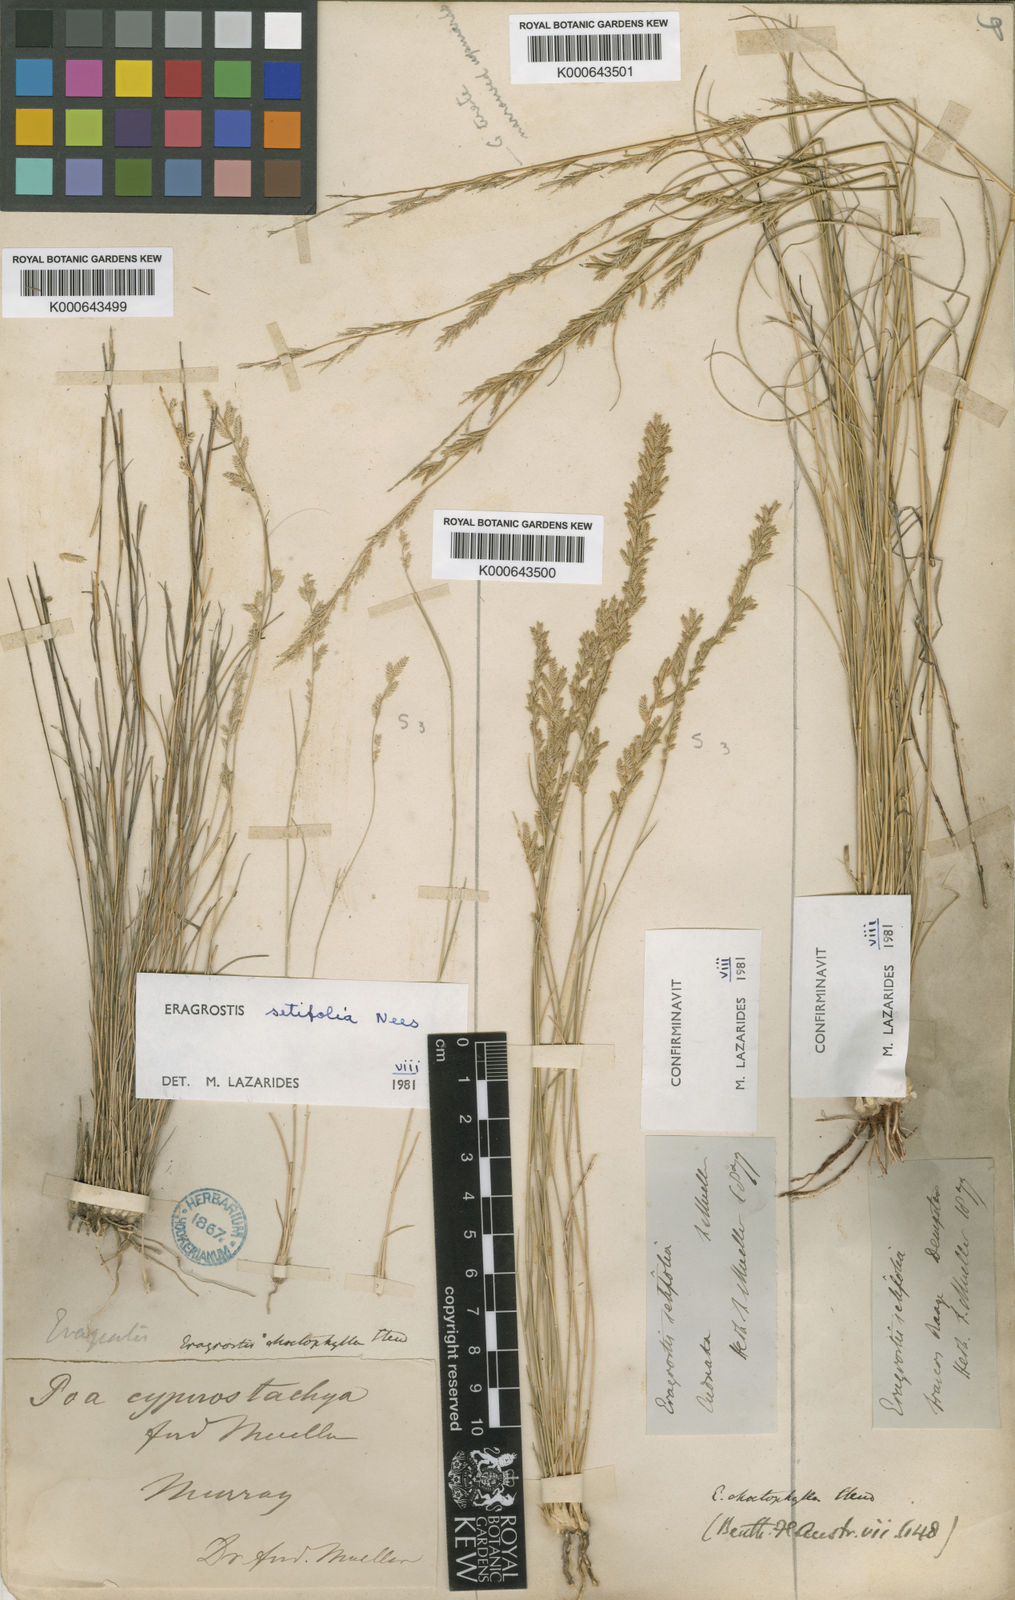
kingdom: Plantae
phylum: Tracheophyta
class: Liliopsida
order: Poales
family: Poaceae
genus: Eragrostis
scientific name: Eragrostis setifolia
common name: Bristleleaf lovegrass
